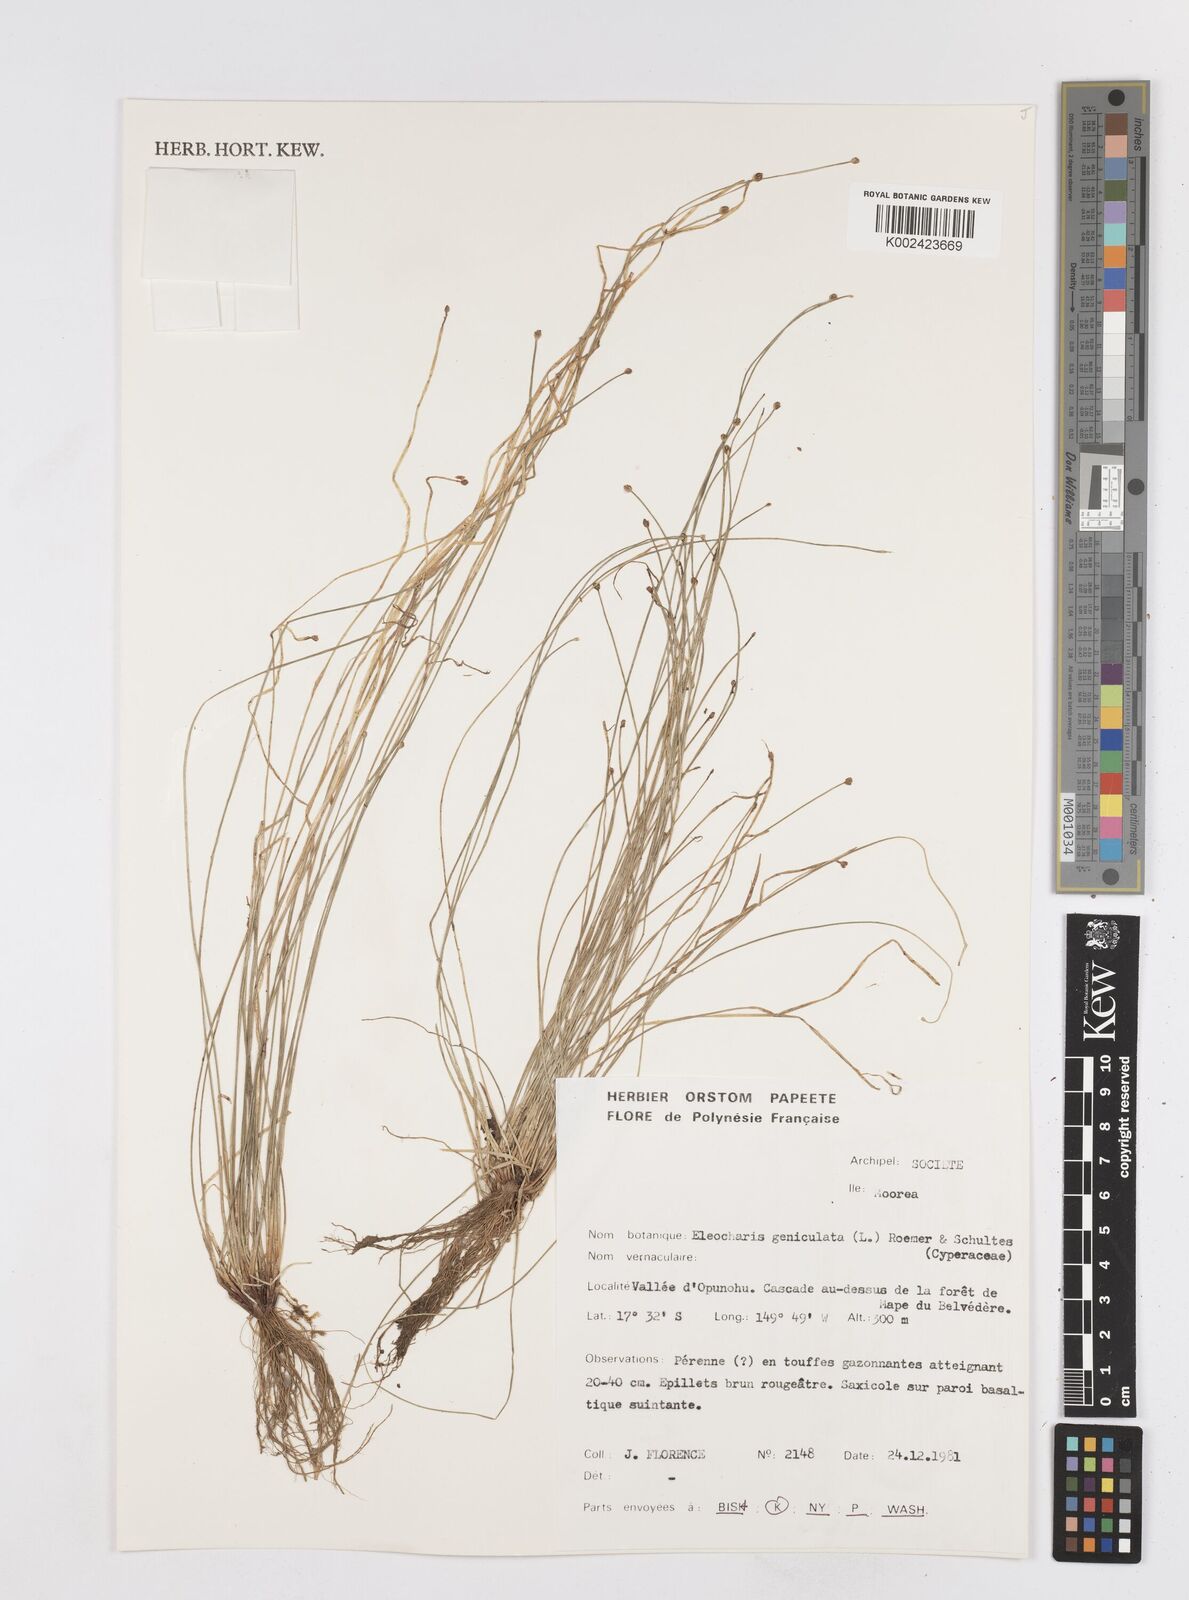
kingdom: Plantae
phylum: Tracheophyta
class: Liliopsida
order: Poales
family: Cyperaceae
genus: Eleocharis
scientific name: Eleocharis geniculata
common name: Canada spikesedge
